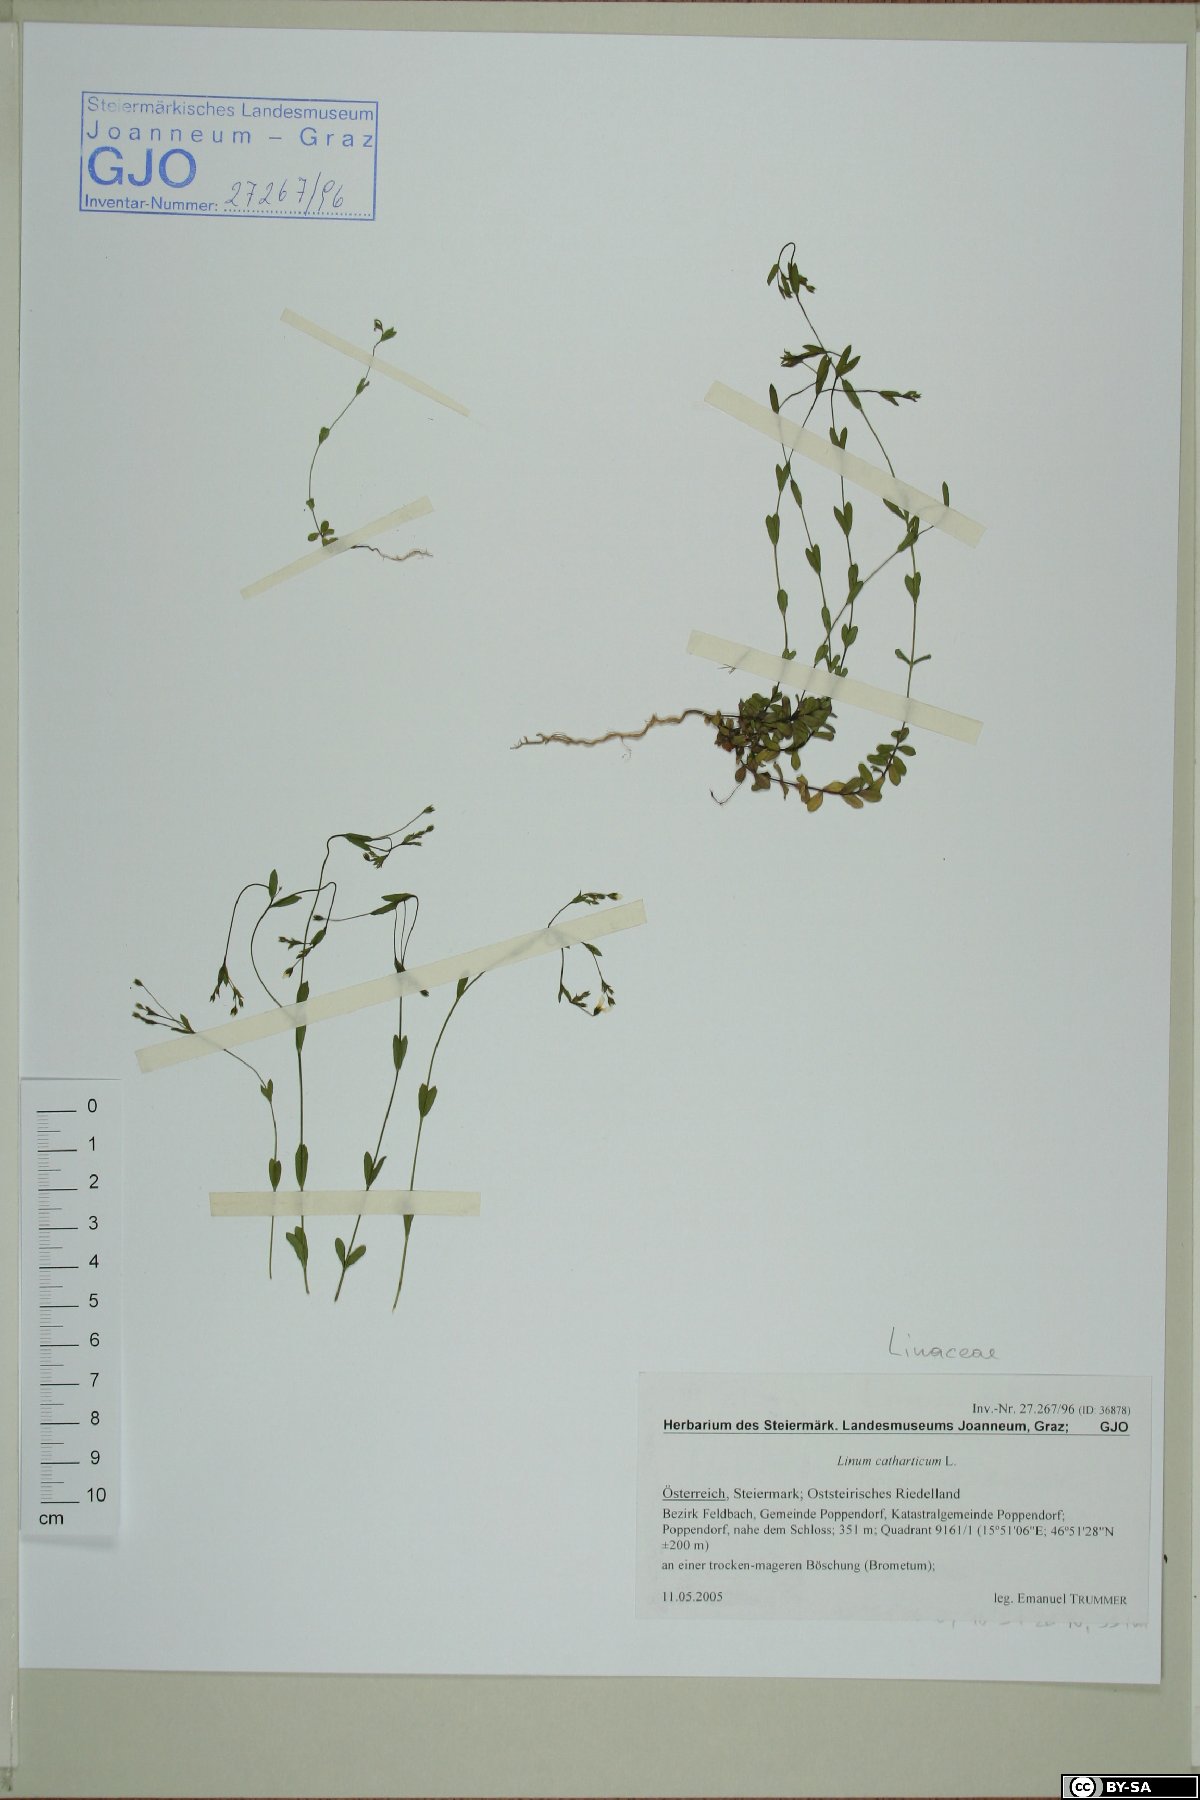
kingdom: Plantae
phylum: Tracheophyta
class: Magnoliopsida
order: Malpighiales
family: Linaceae
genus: Linum
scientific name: Linum catharticum
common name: Fairy flax
